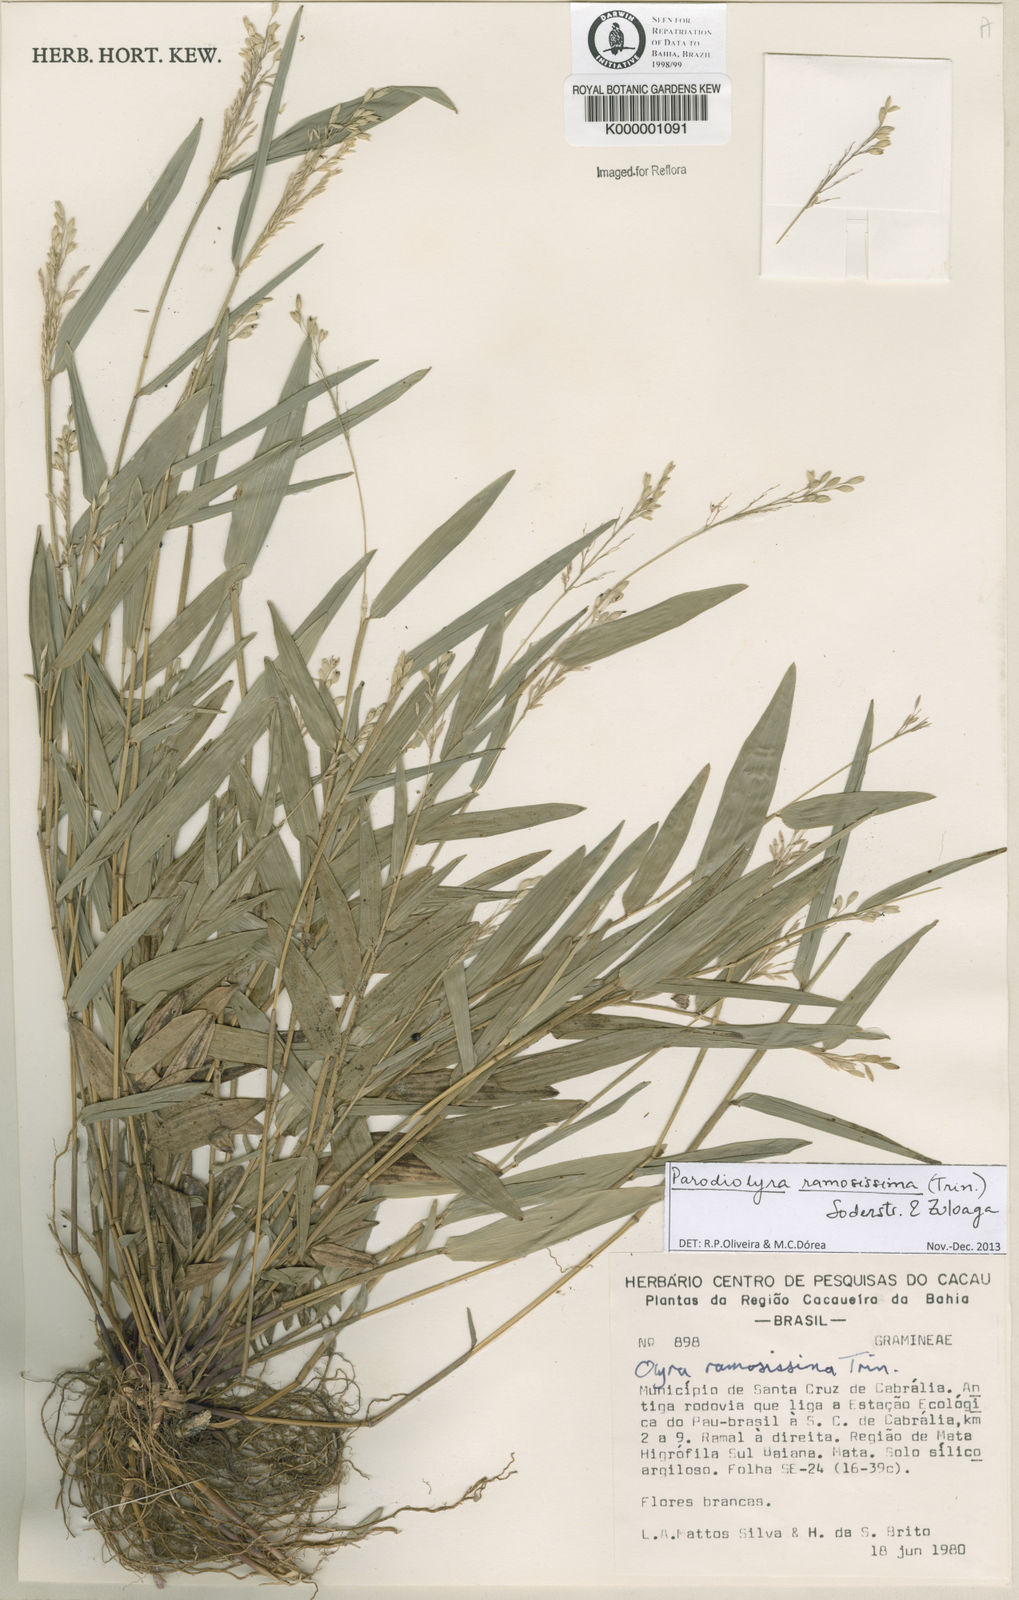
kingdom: Plantae
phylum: Tracheophyta
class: Liliopsida
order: Poales
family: Poaceae
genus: Parodiolyra
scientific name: Parodiolyra ramosissima
